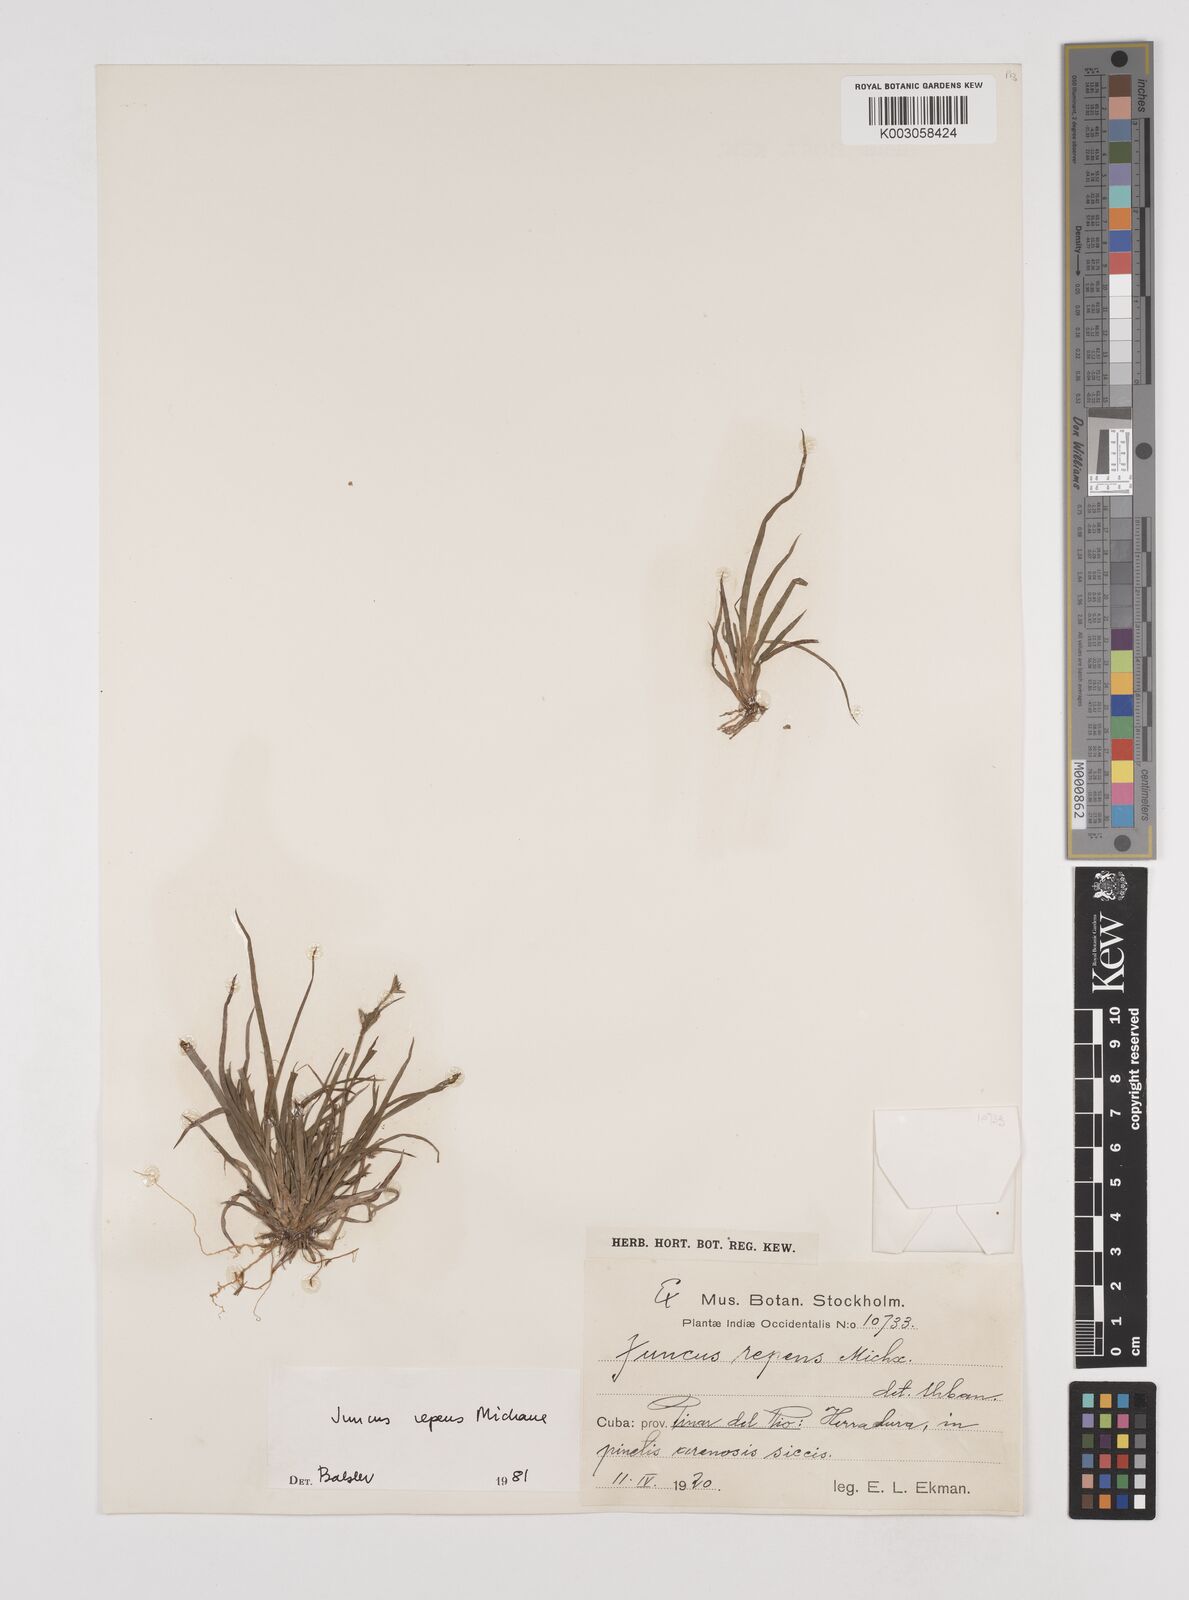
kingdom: Plantae
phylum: Tracheophyta
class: Liliopsida
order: Poales
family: Juncaceae
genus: Juncus
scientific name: Juncus repens
